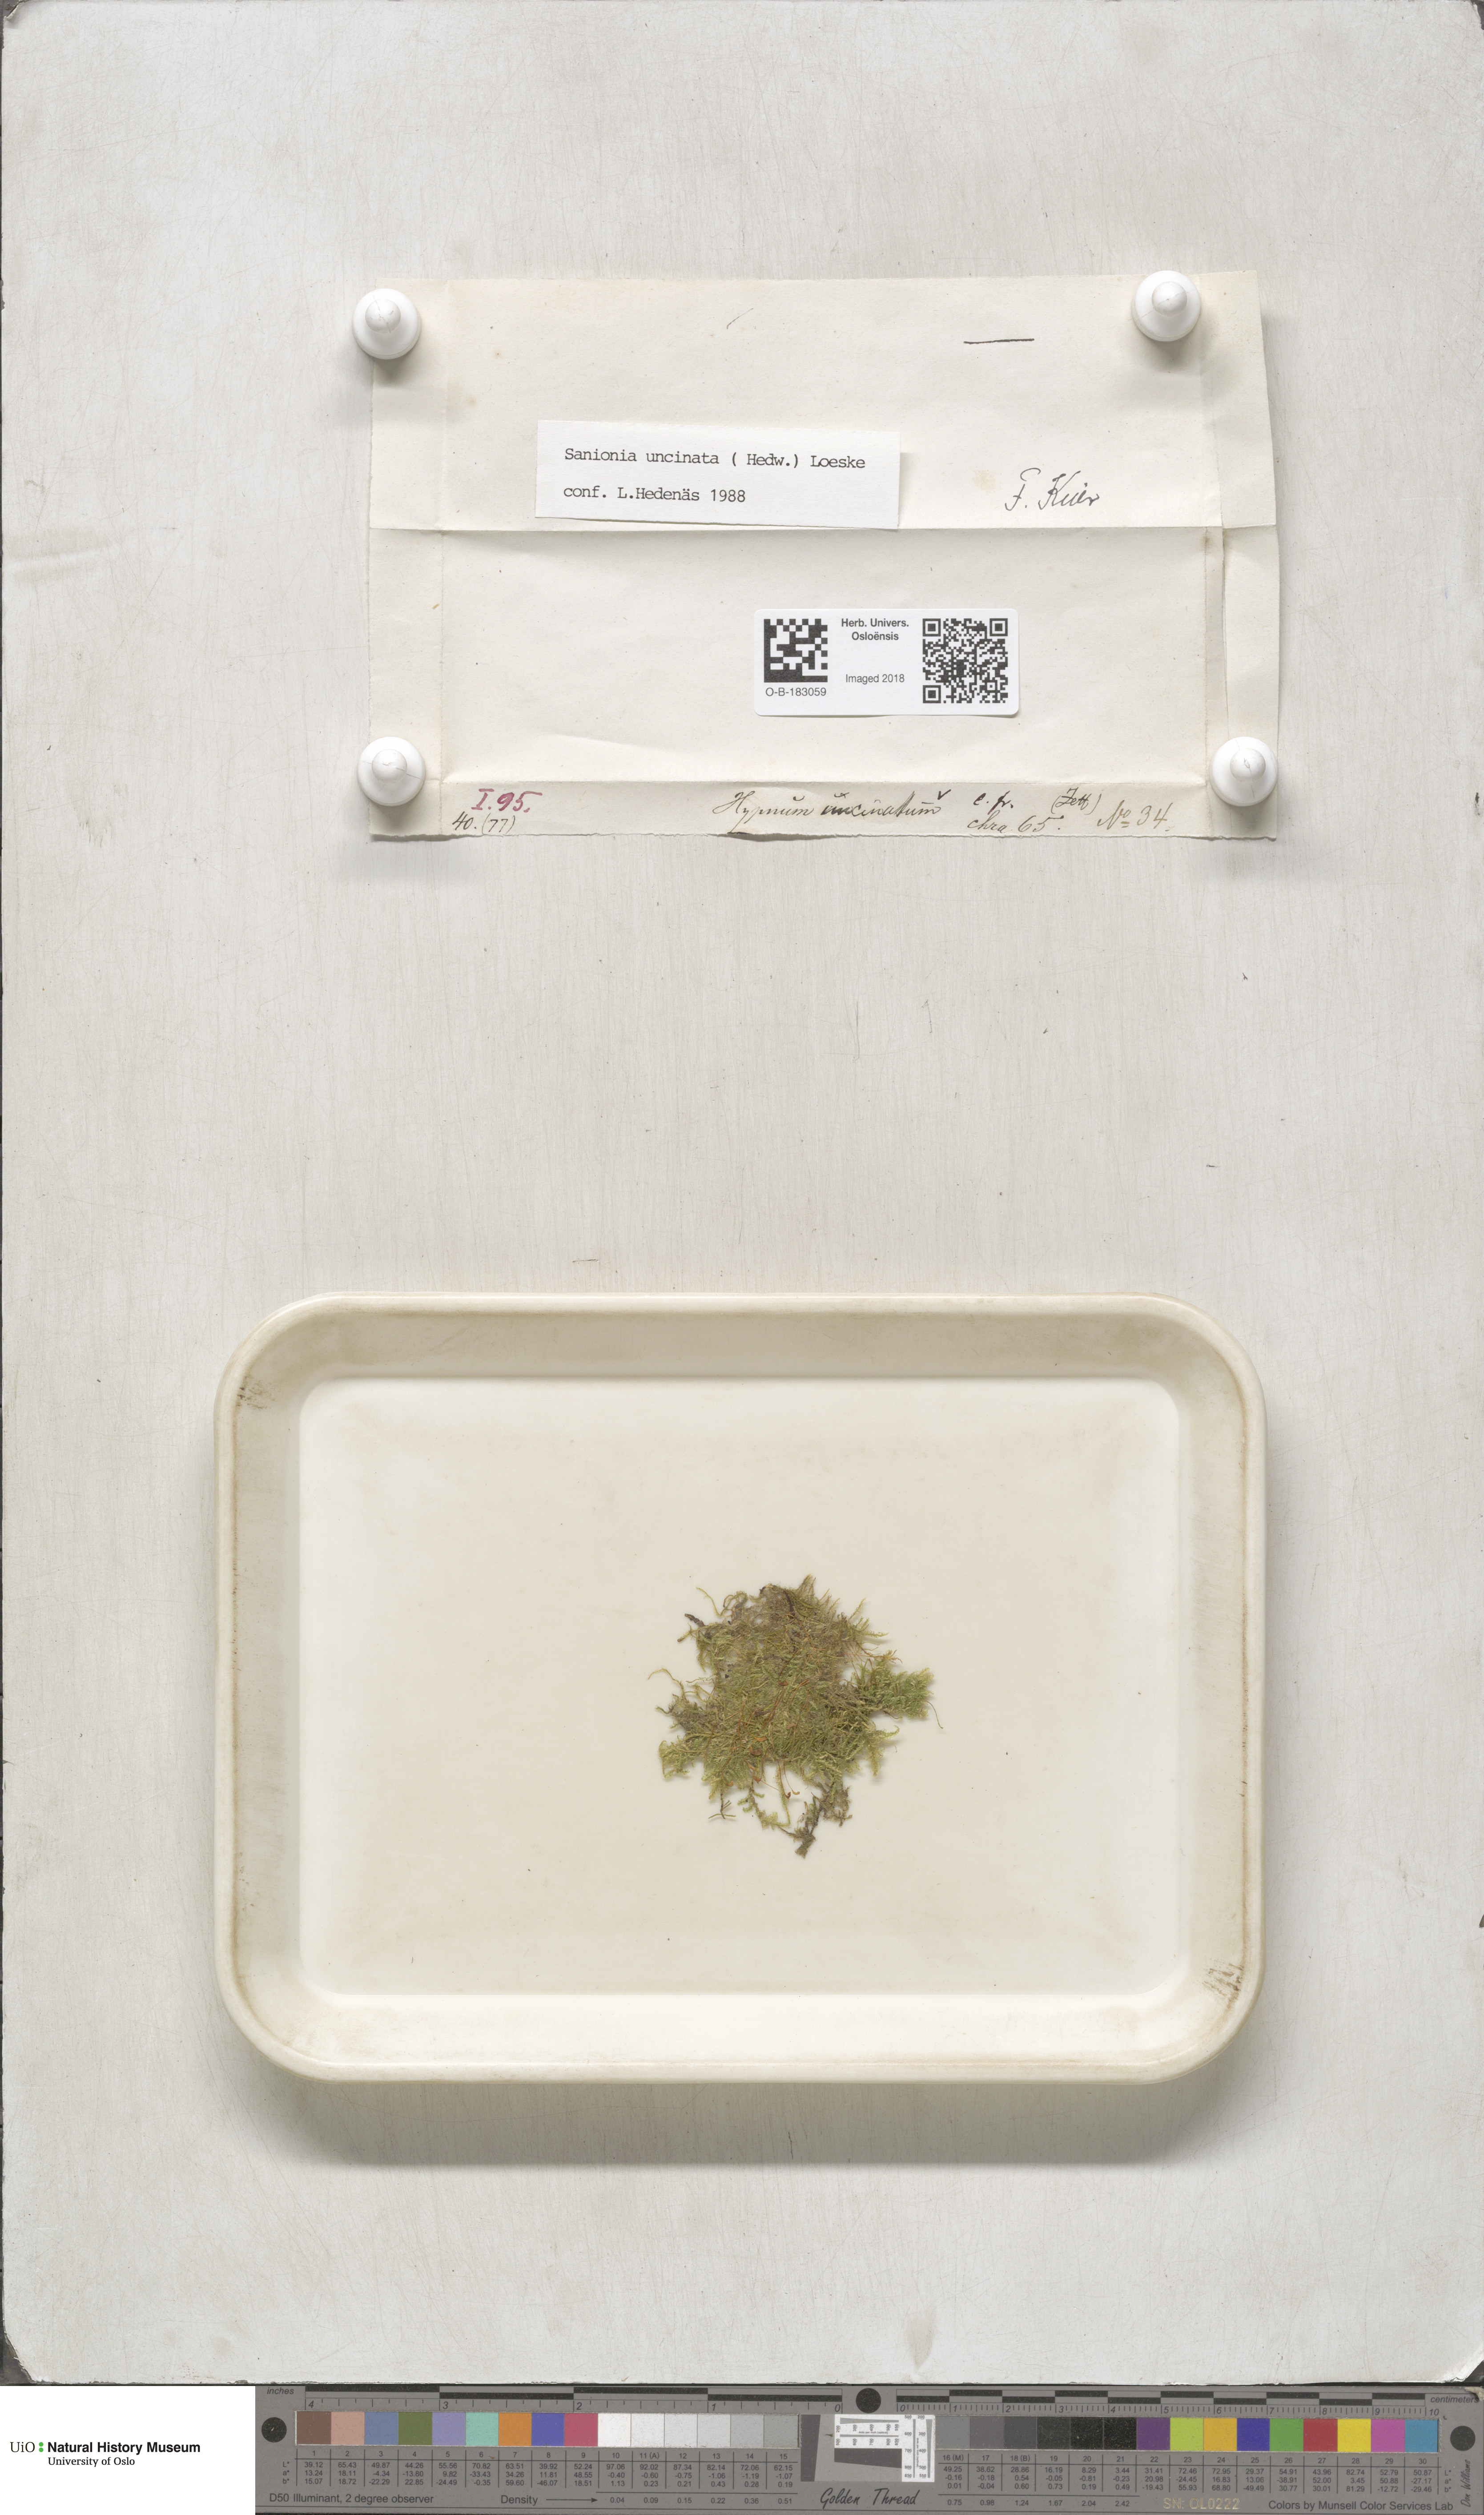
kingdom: Plantae
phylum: Bryophyta
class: Bryopsida
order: Hypnales
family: Scorpidiaceae
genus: Sanionia
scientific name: Sanionia uncinata
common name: Sickle moss
